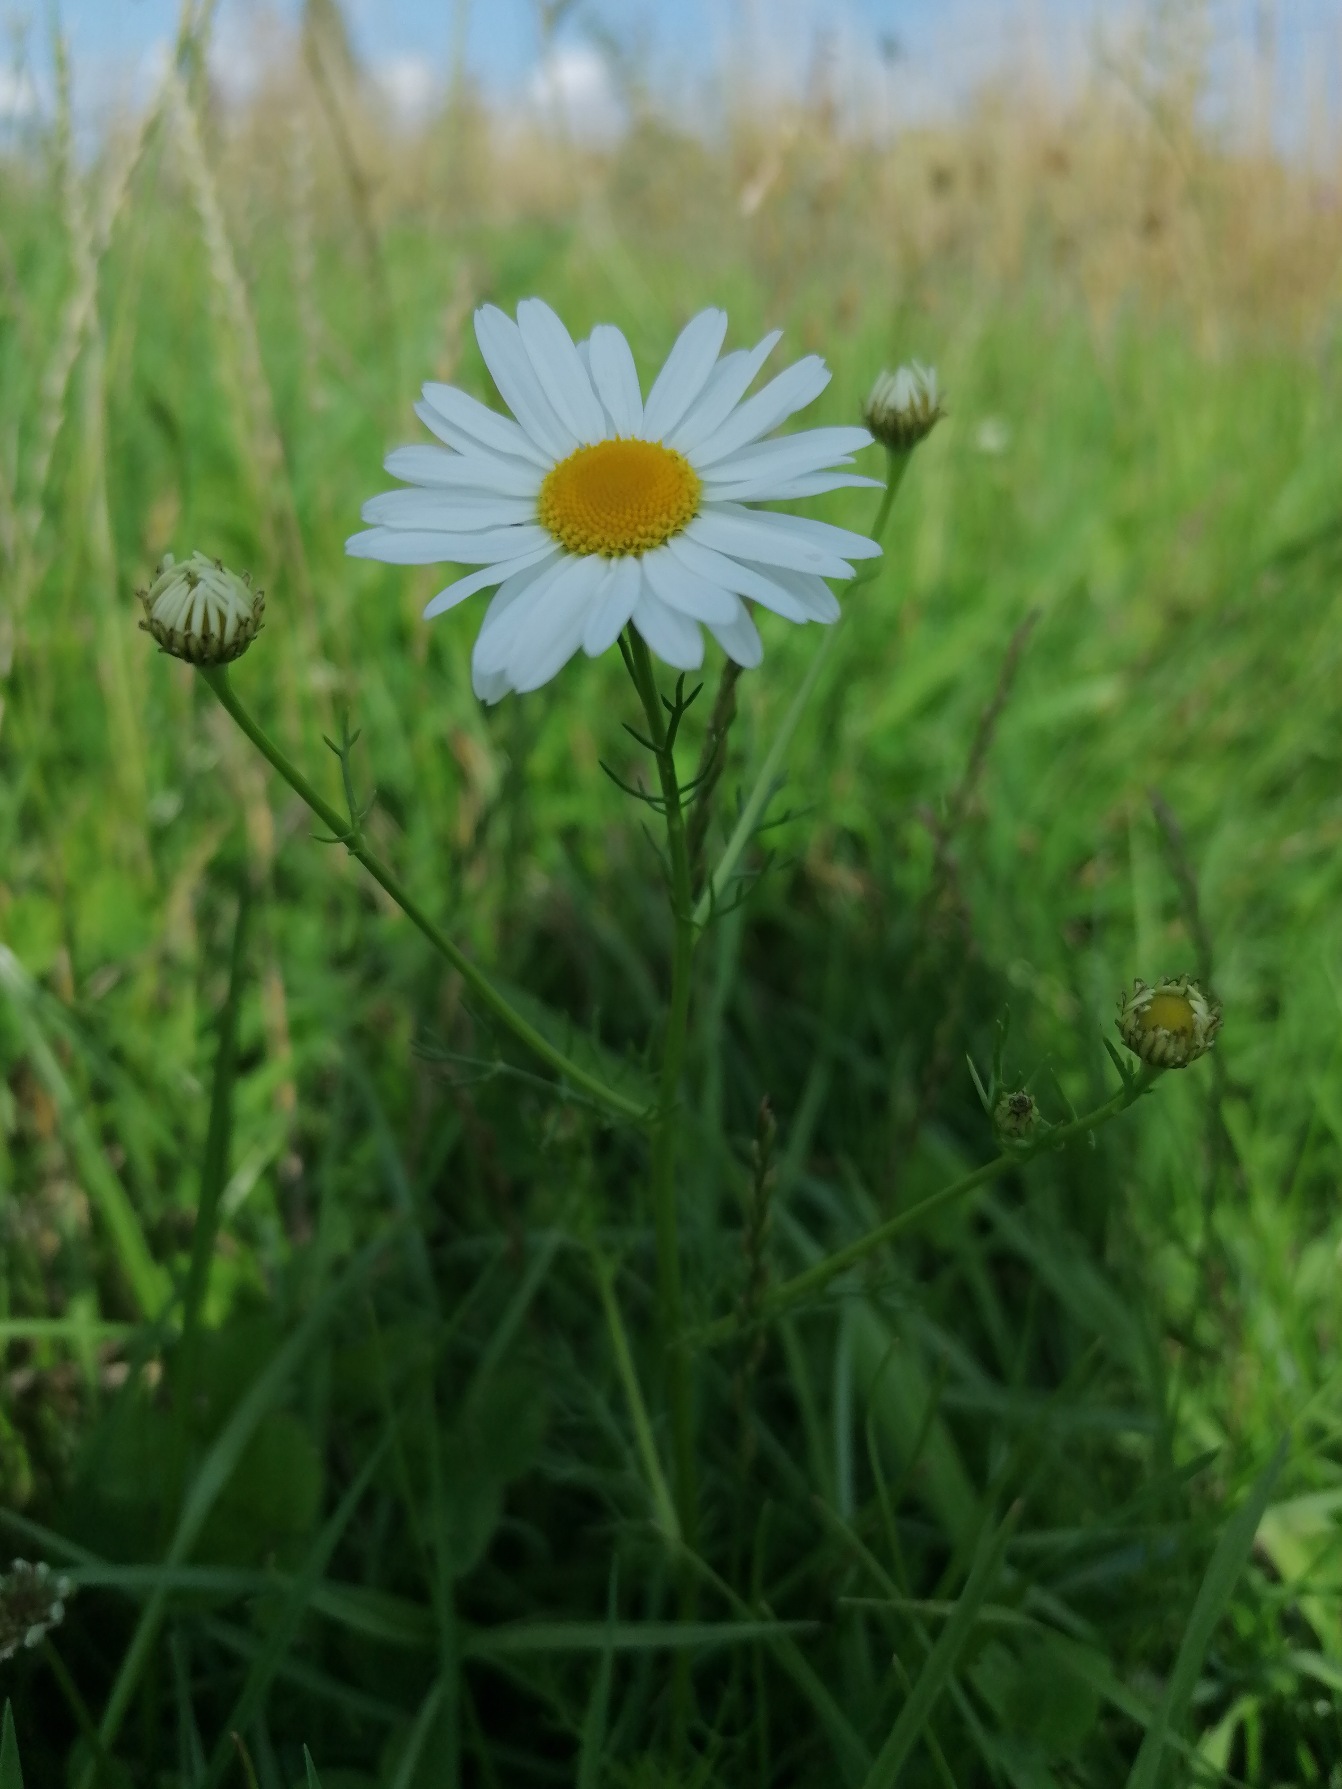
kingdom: Plantae
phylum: Tracheophyta
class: Magnoliopsida
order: Asterales
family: Asteraceae
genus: Tripleurospermum
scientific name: Tripleurospermum inodorum
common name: Lugtløs kamille
